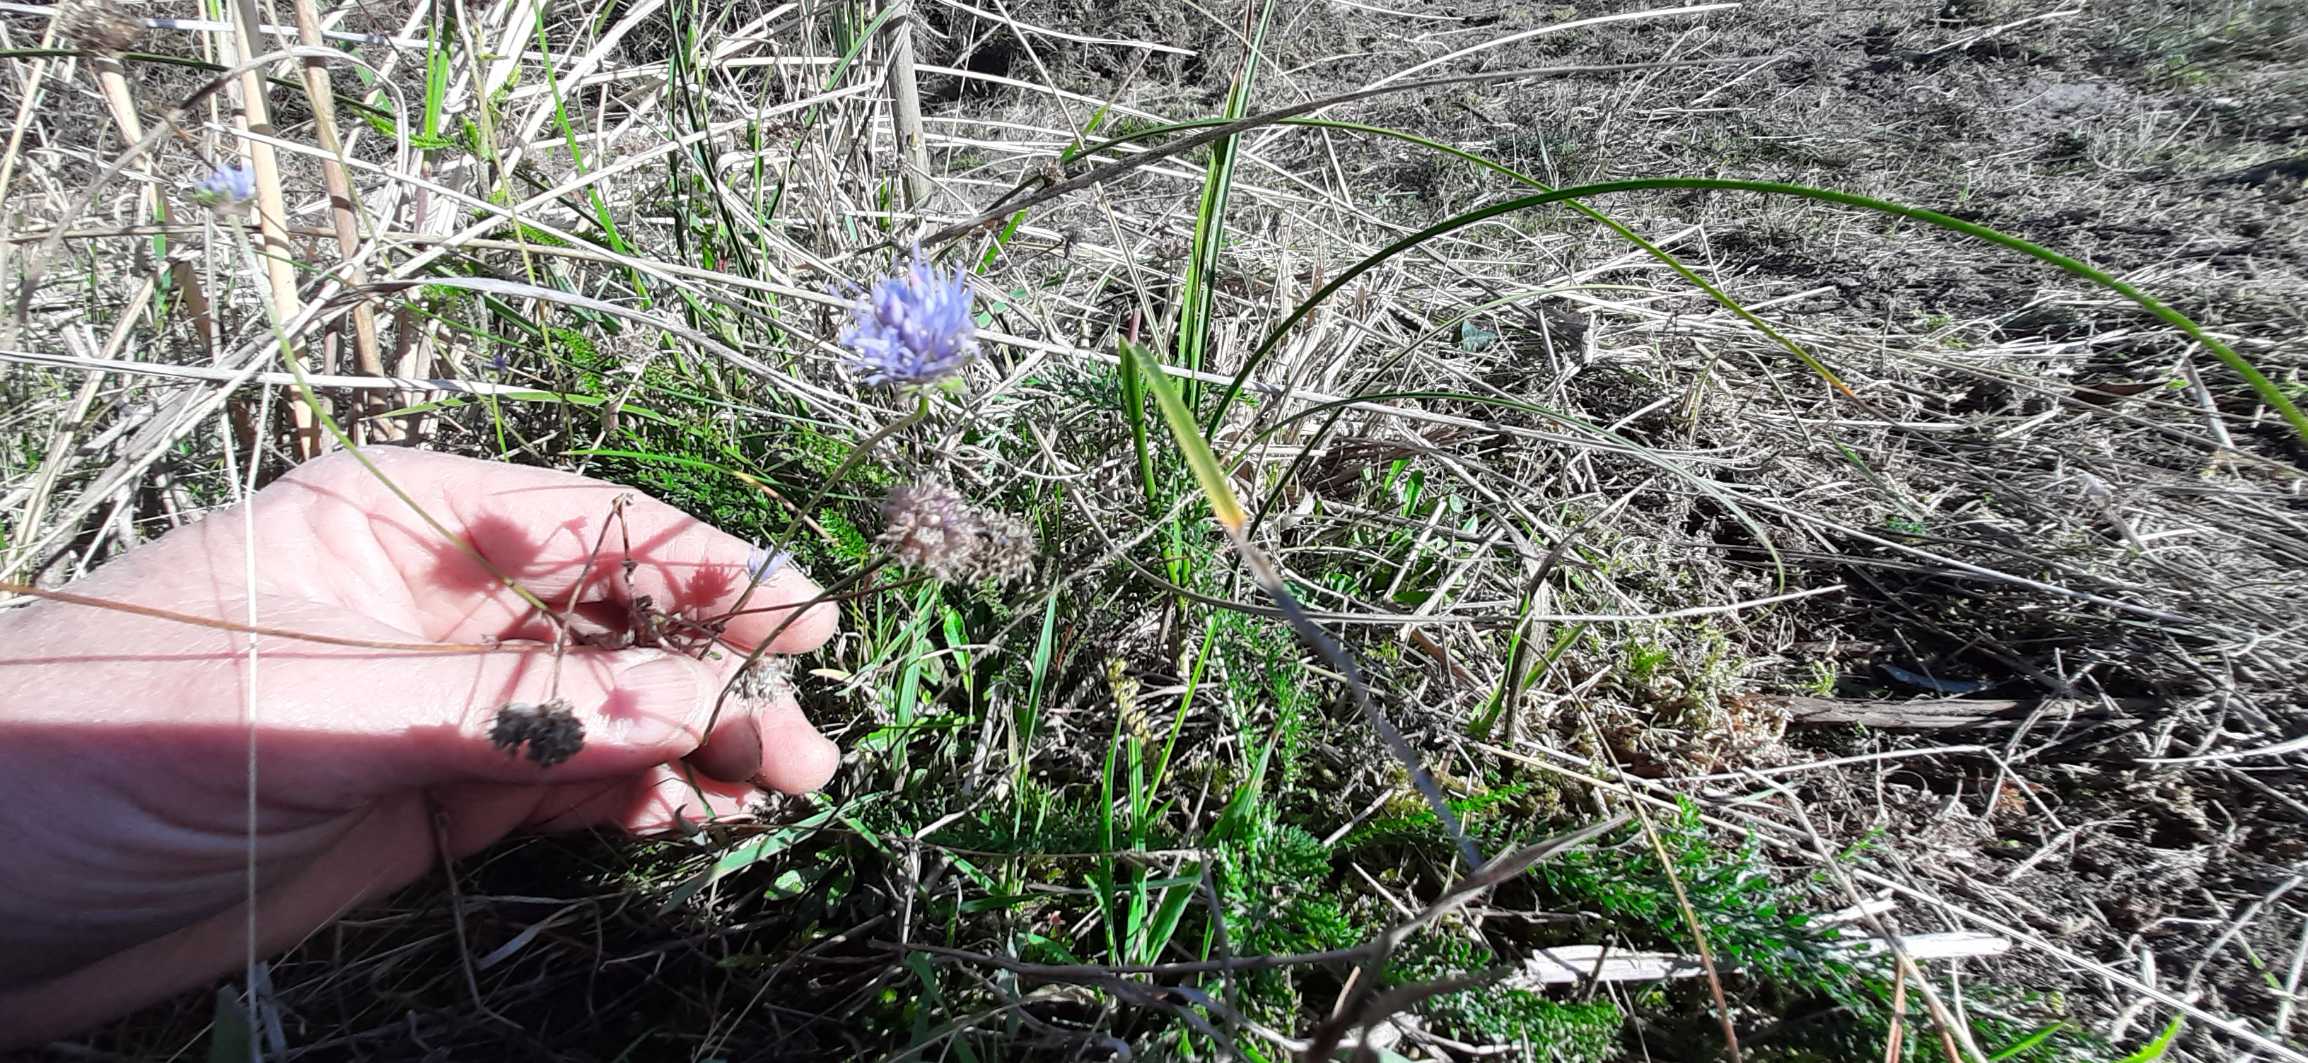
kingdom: Plantae
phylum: Tracheophyta
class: Magnoliopsida
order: Asterales
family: Campanulaceae
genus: Jasione
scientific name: Jasione montana
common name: Blåmunke
